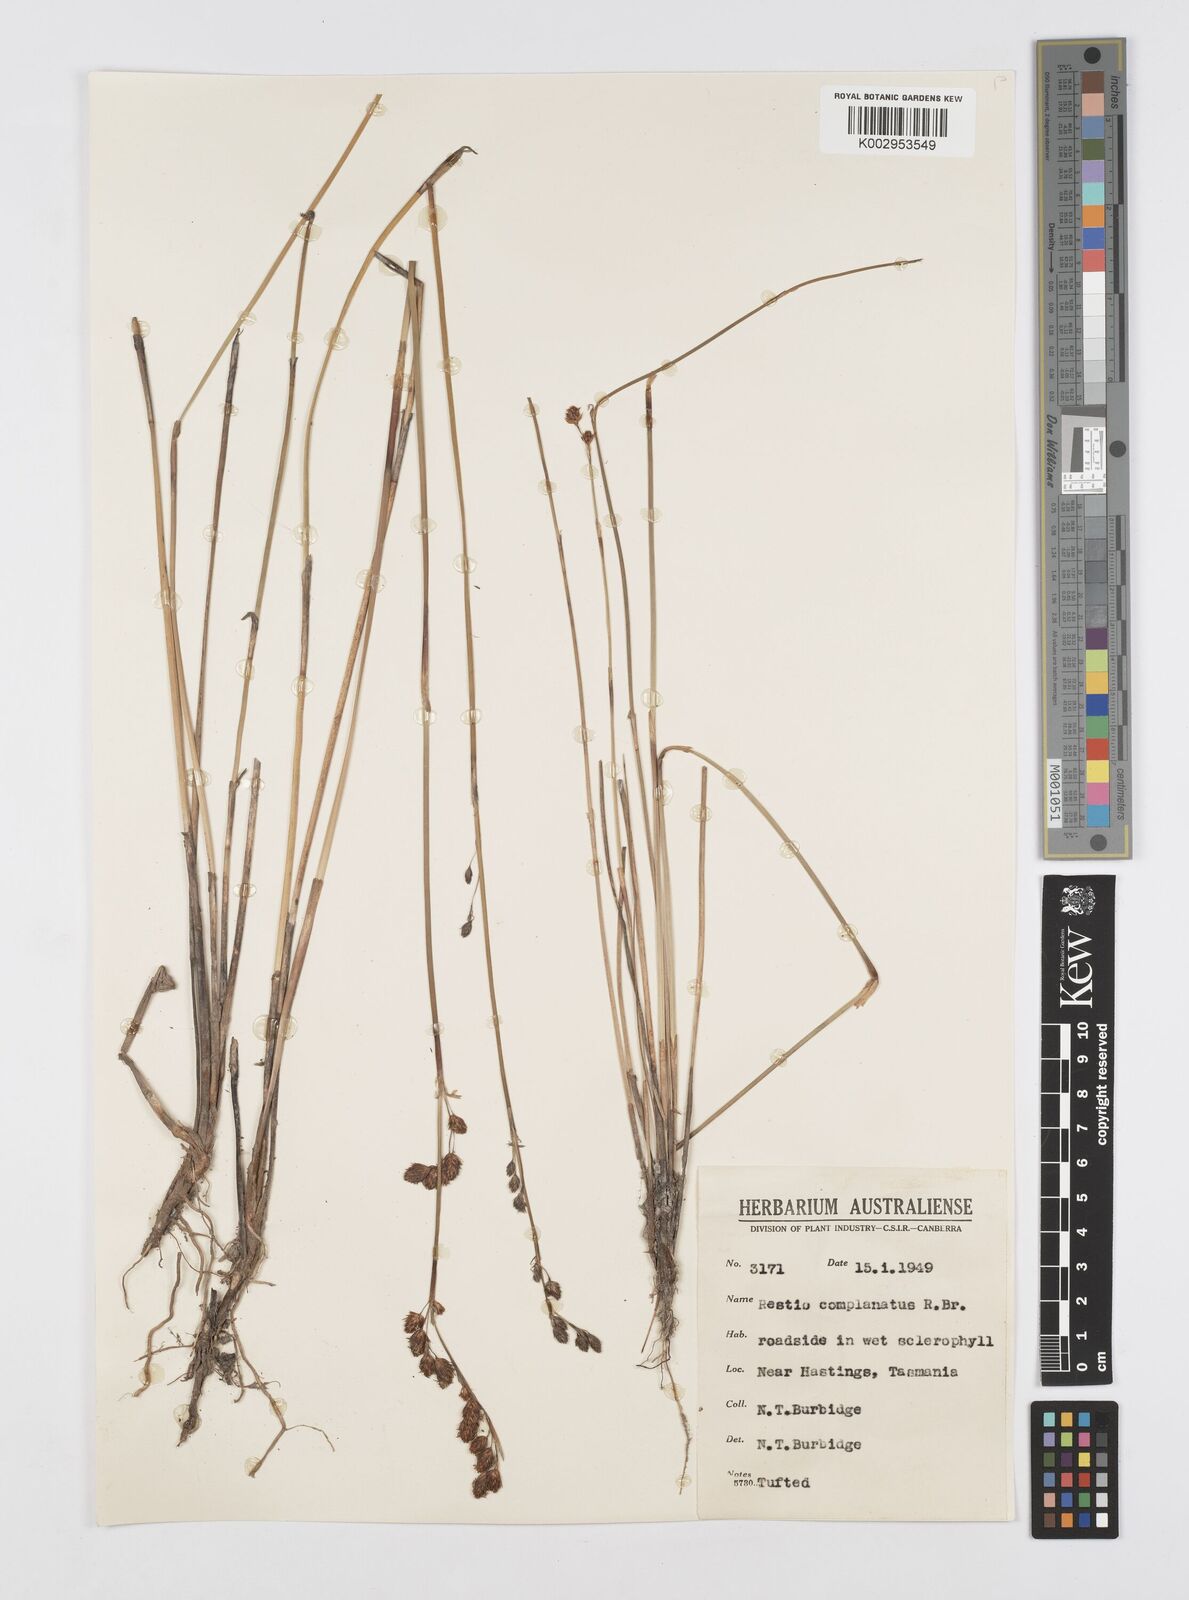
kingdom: Plantae
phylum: Tracheophyta
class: Liliopsida
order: Poales
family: Restionaceae
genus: Eurychorda
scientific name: Eurychorda complanata
